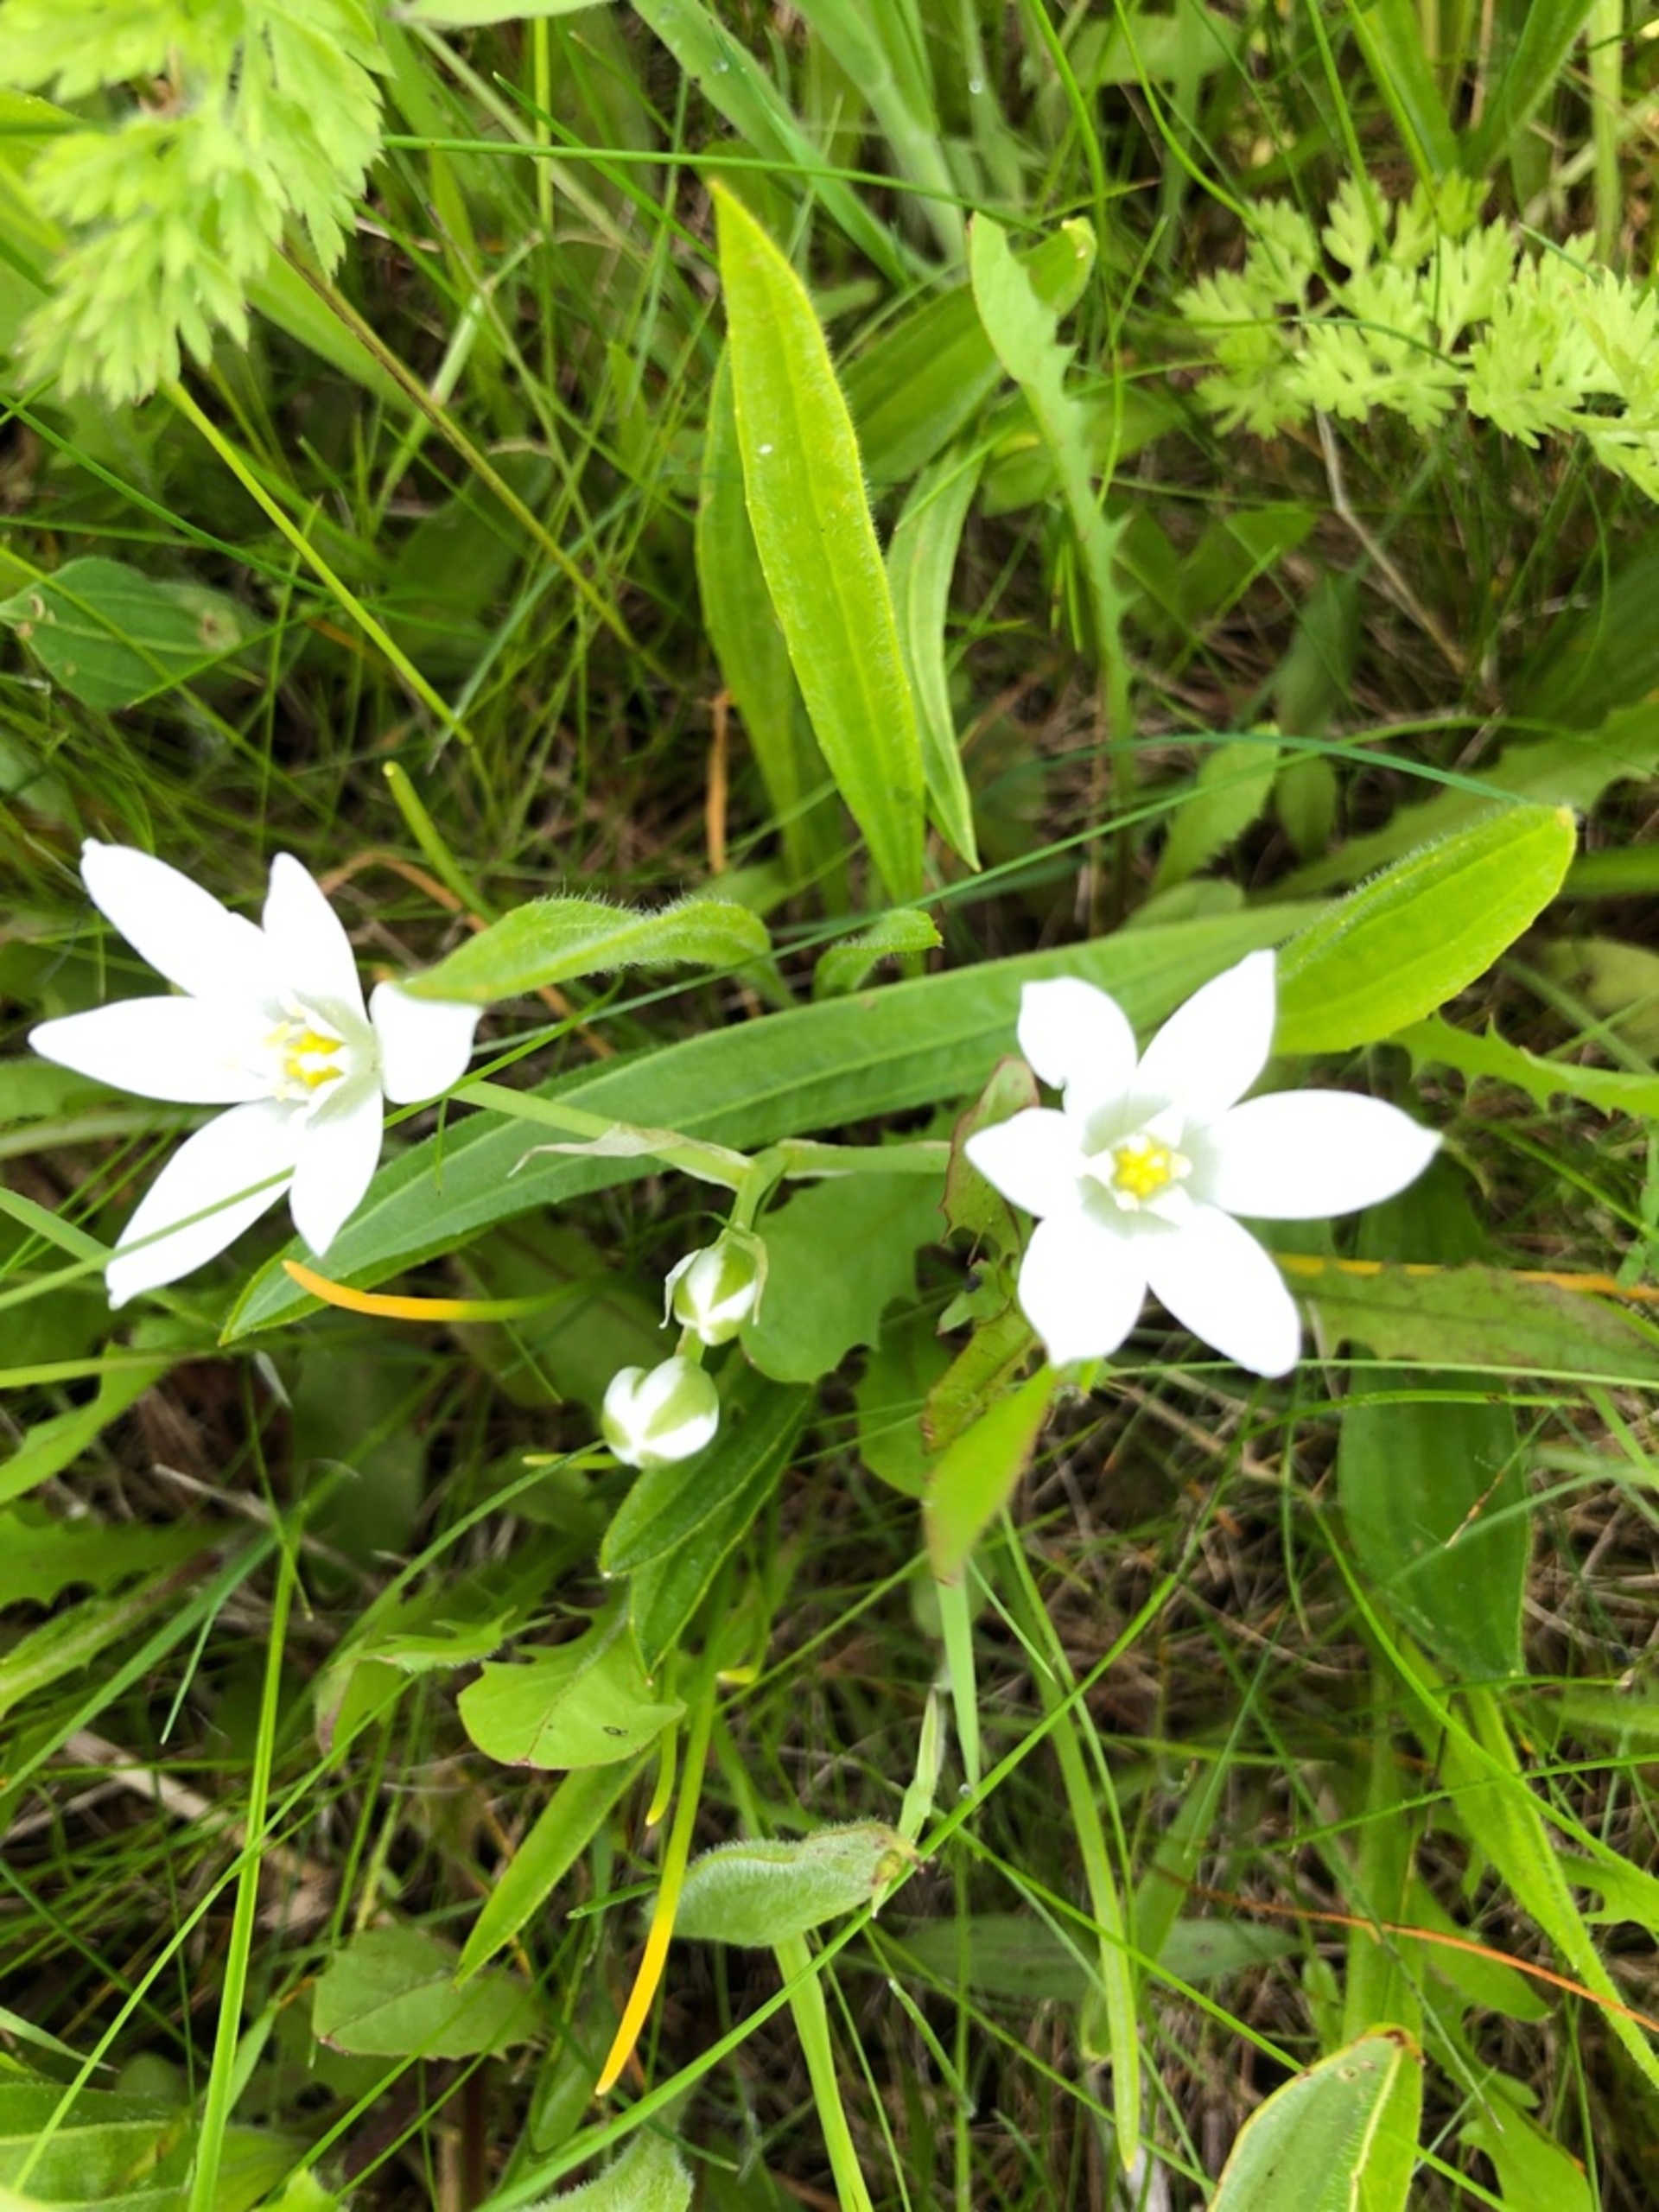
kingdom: Plantae
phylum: Tracheophyta
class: Liliopsida
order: Asparagales
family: Asparagaceae
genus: Ornithogalum
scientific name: Ornithogalum umbellatum
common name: Kost-fuglemælk
